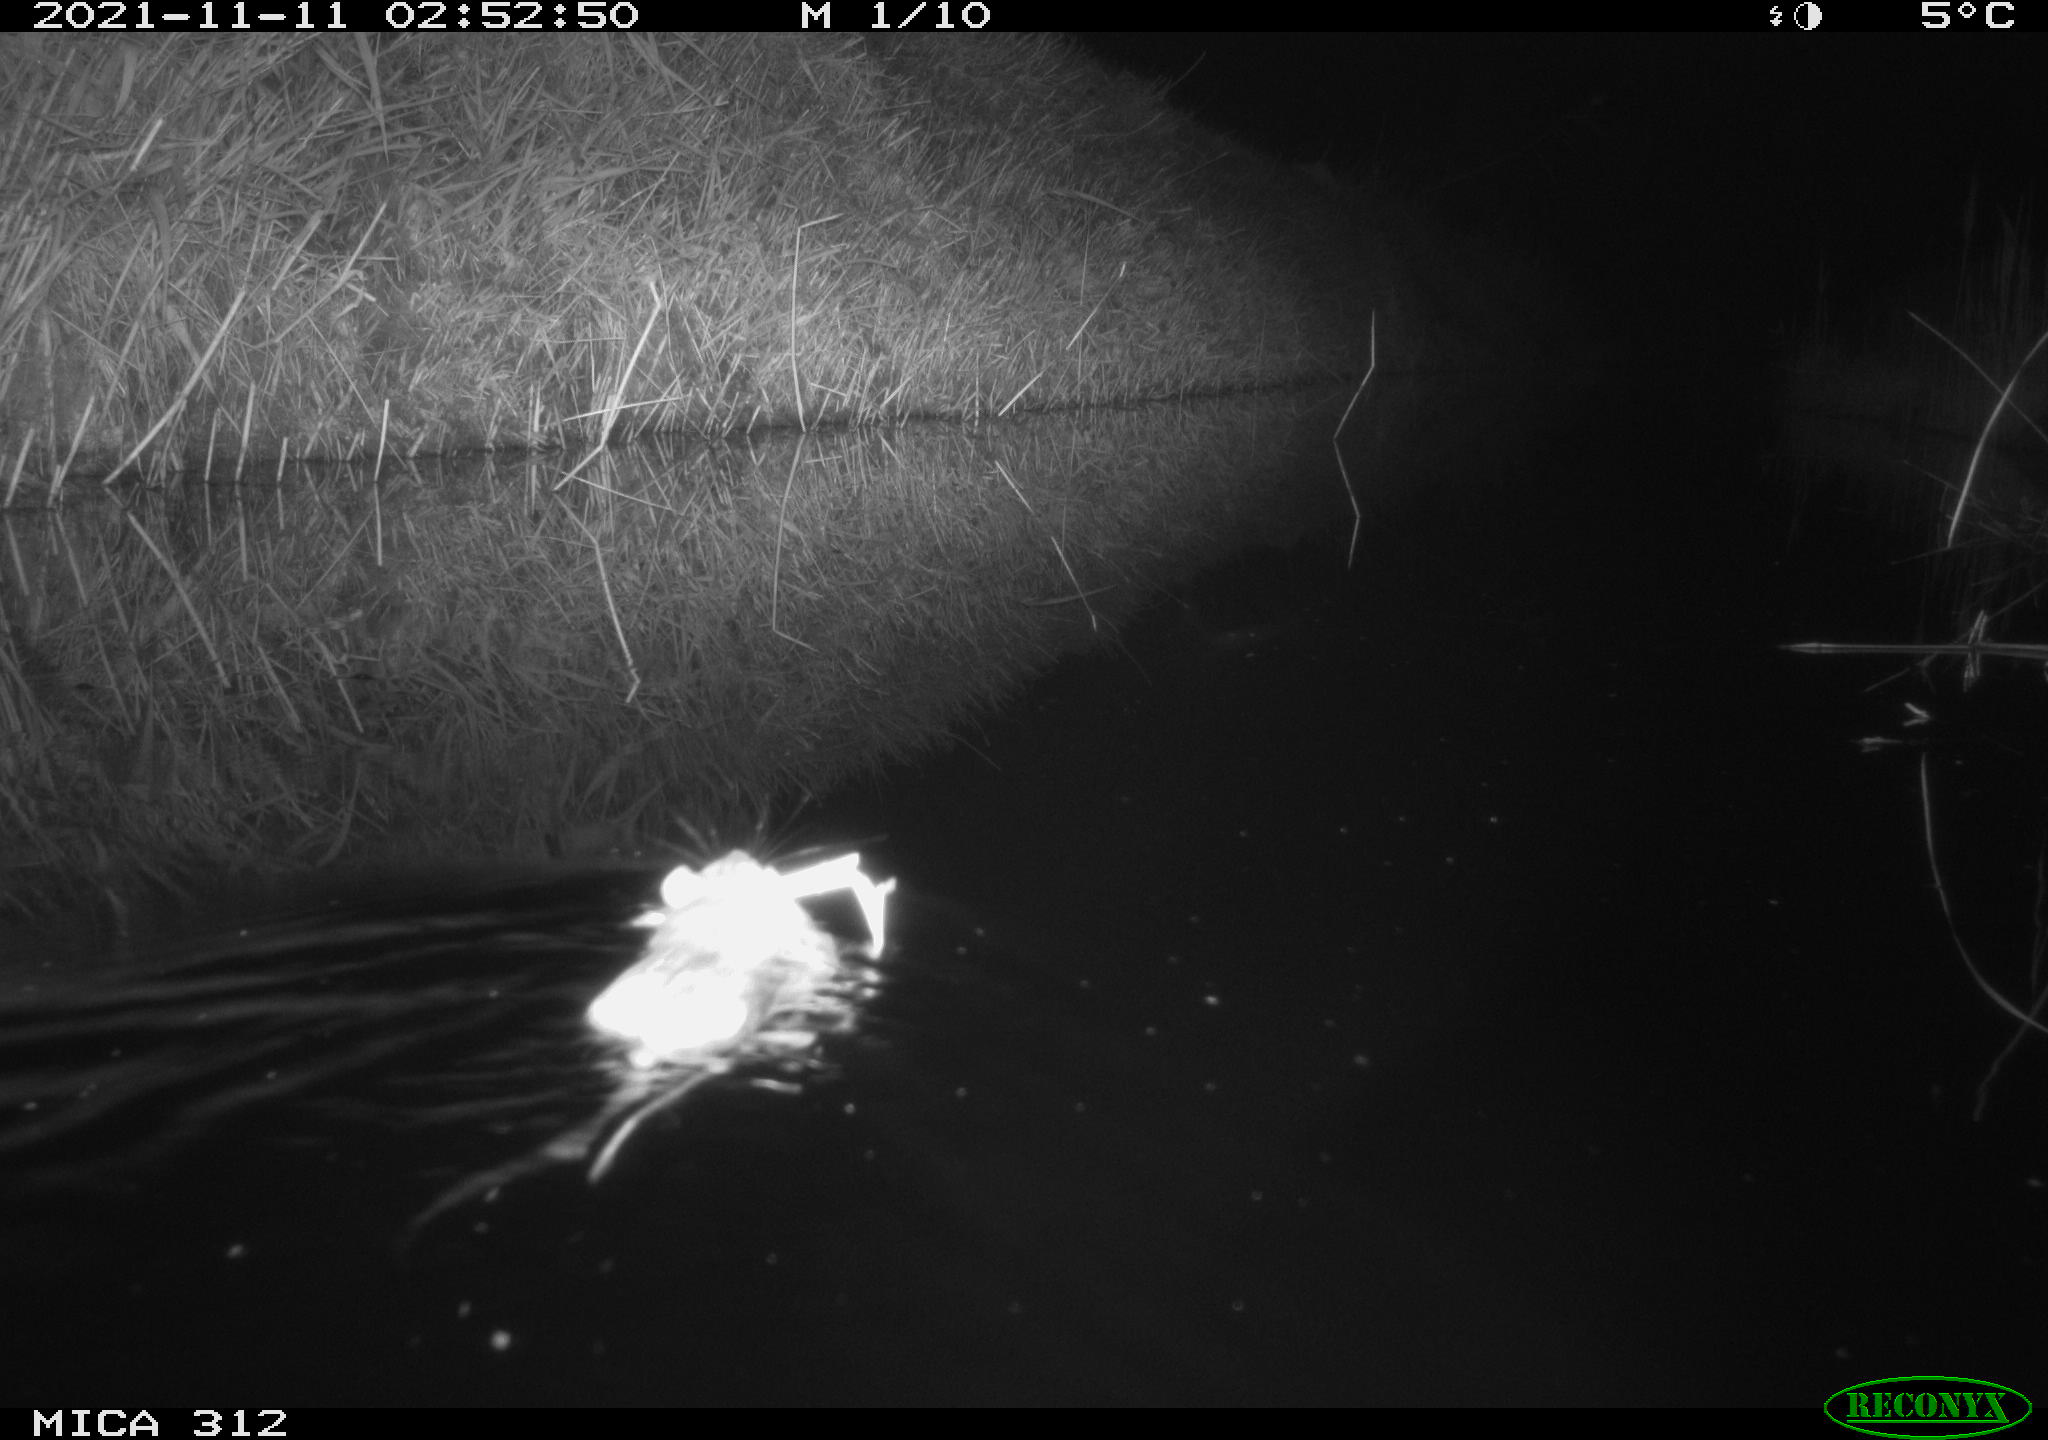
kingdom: Animalia
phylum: Chordata
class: Aves
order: Anseriformes
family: Anatidae
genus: Anas
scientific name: Anas
